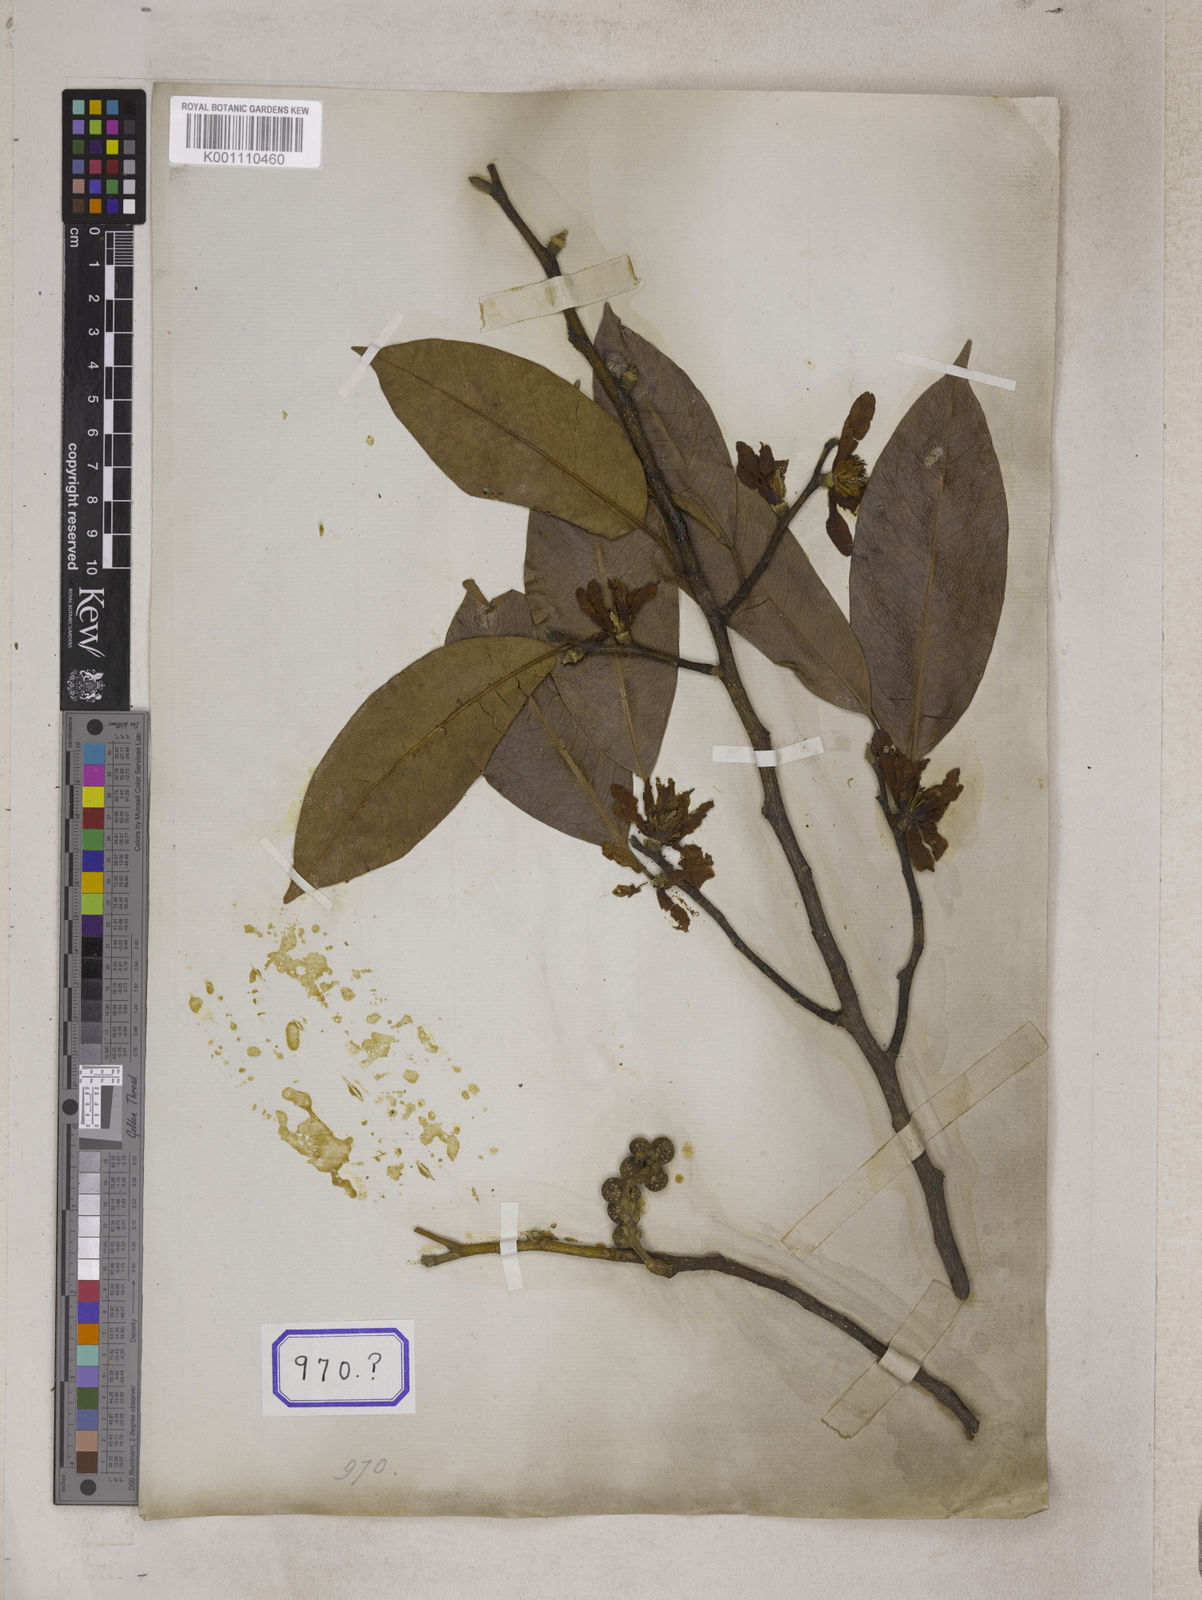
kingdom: Plantae
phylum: Tracheophyta
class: Magnoliopsida
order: Magnoliales
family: Magnoliaceae
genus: Michelia
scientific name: Michelia
